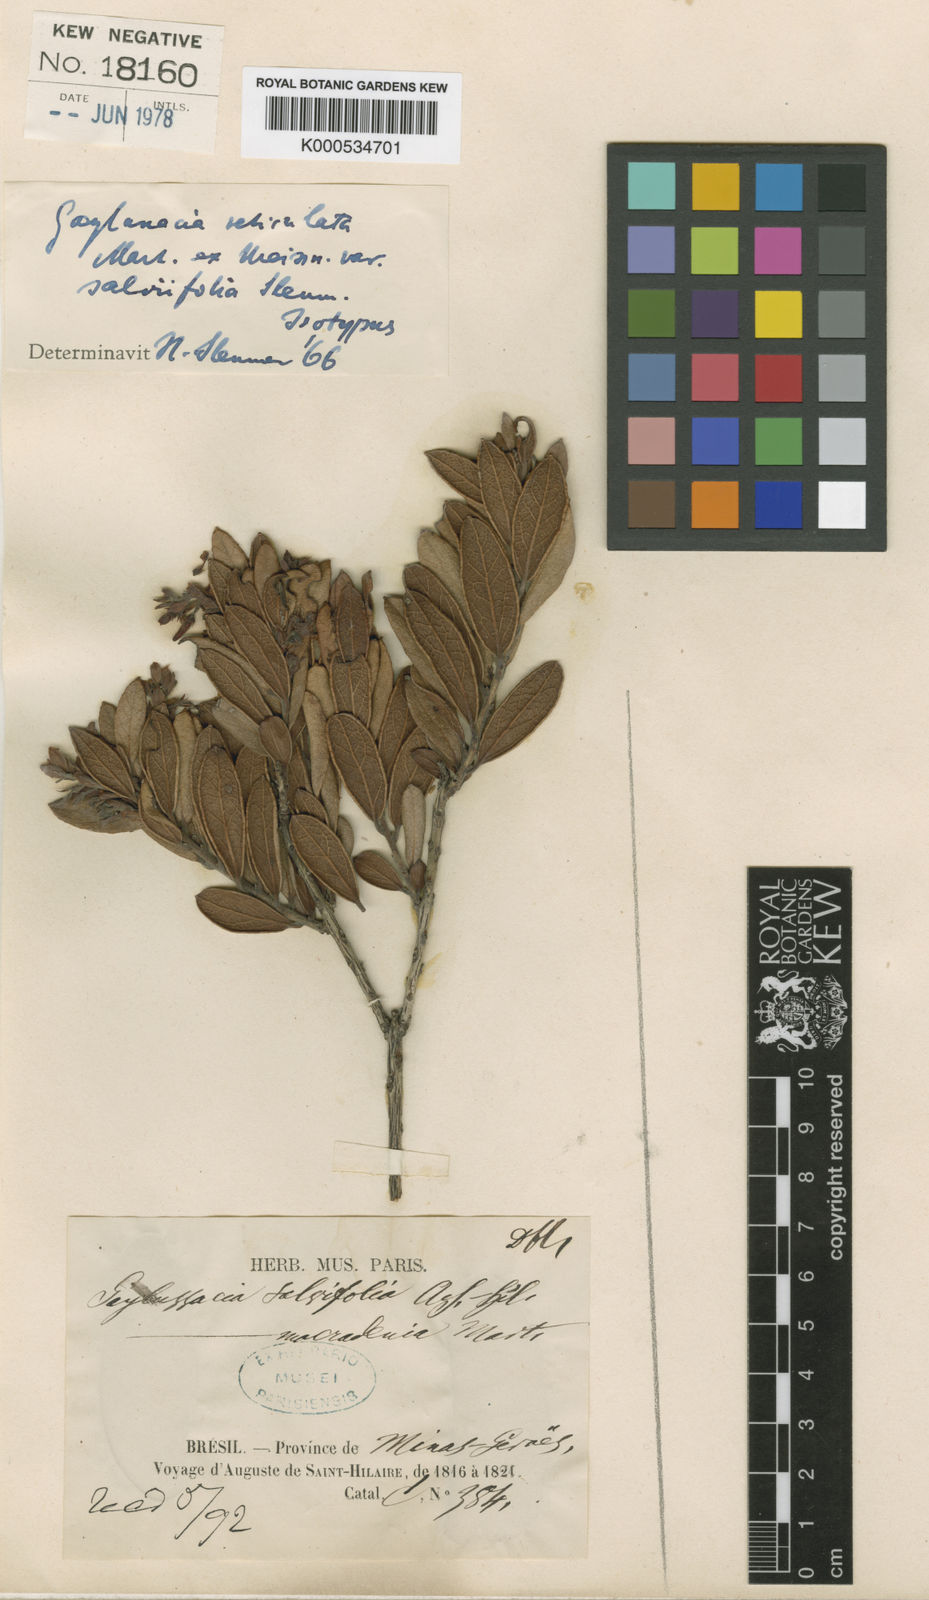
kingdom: Plantae
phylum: Tracheophyta
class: Magnoliopsida
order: Ericales
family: Ericaceae
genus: Gaylussacia
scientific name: Gaylussacia reticulata
